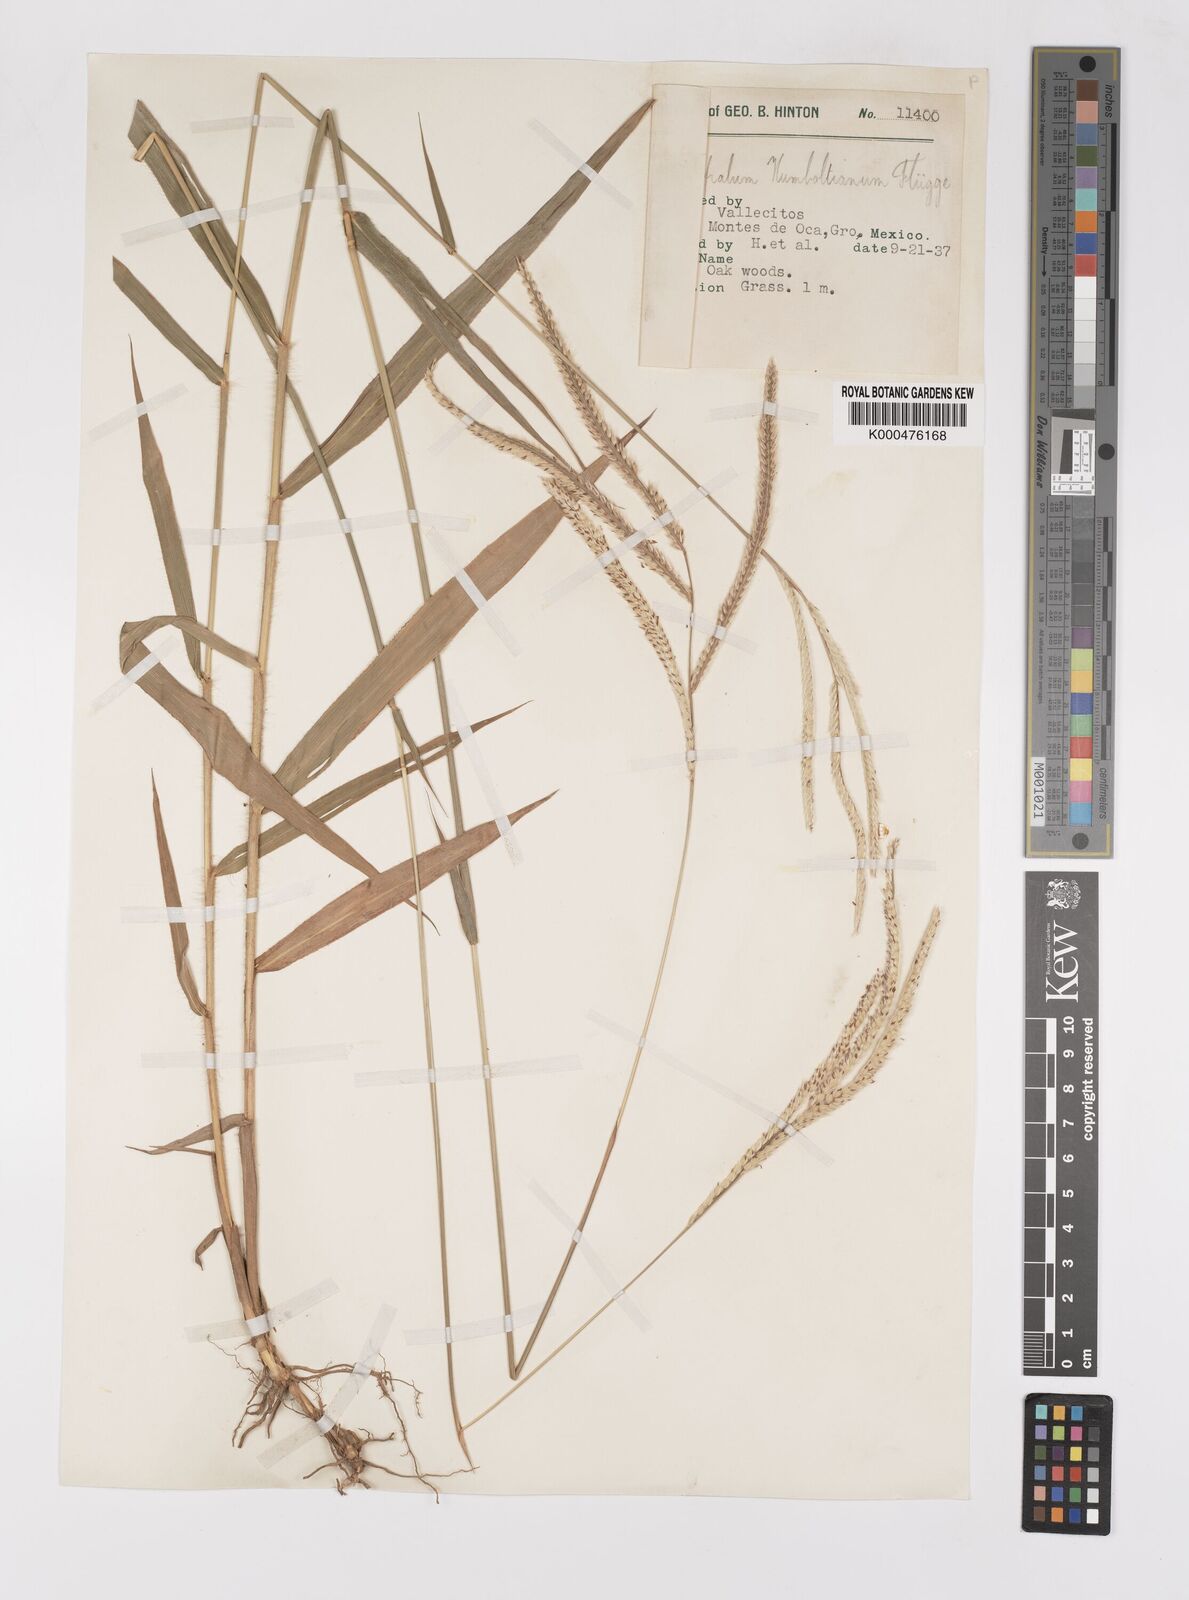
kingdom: Plantae
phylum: Tracheophyta
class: Liliopsida
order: Poales
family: Poaceae
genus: Paspalum
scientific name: Paspalum
